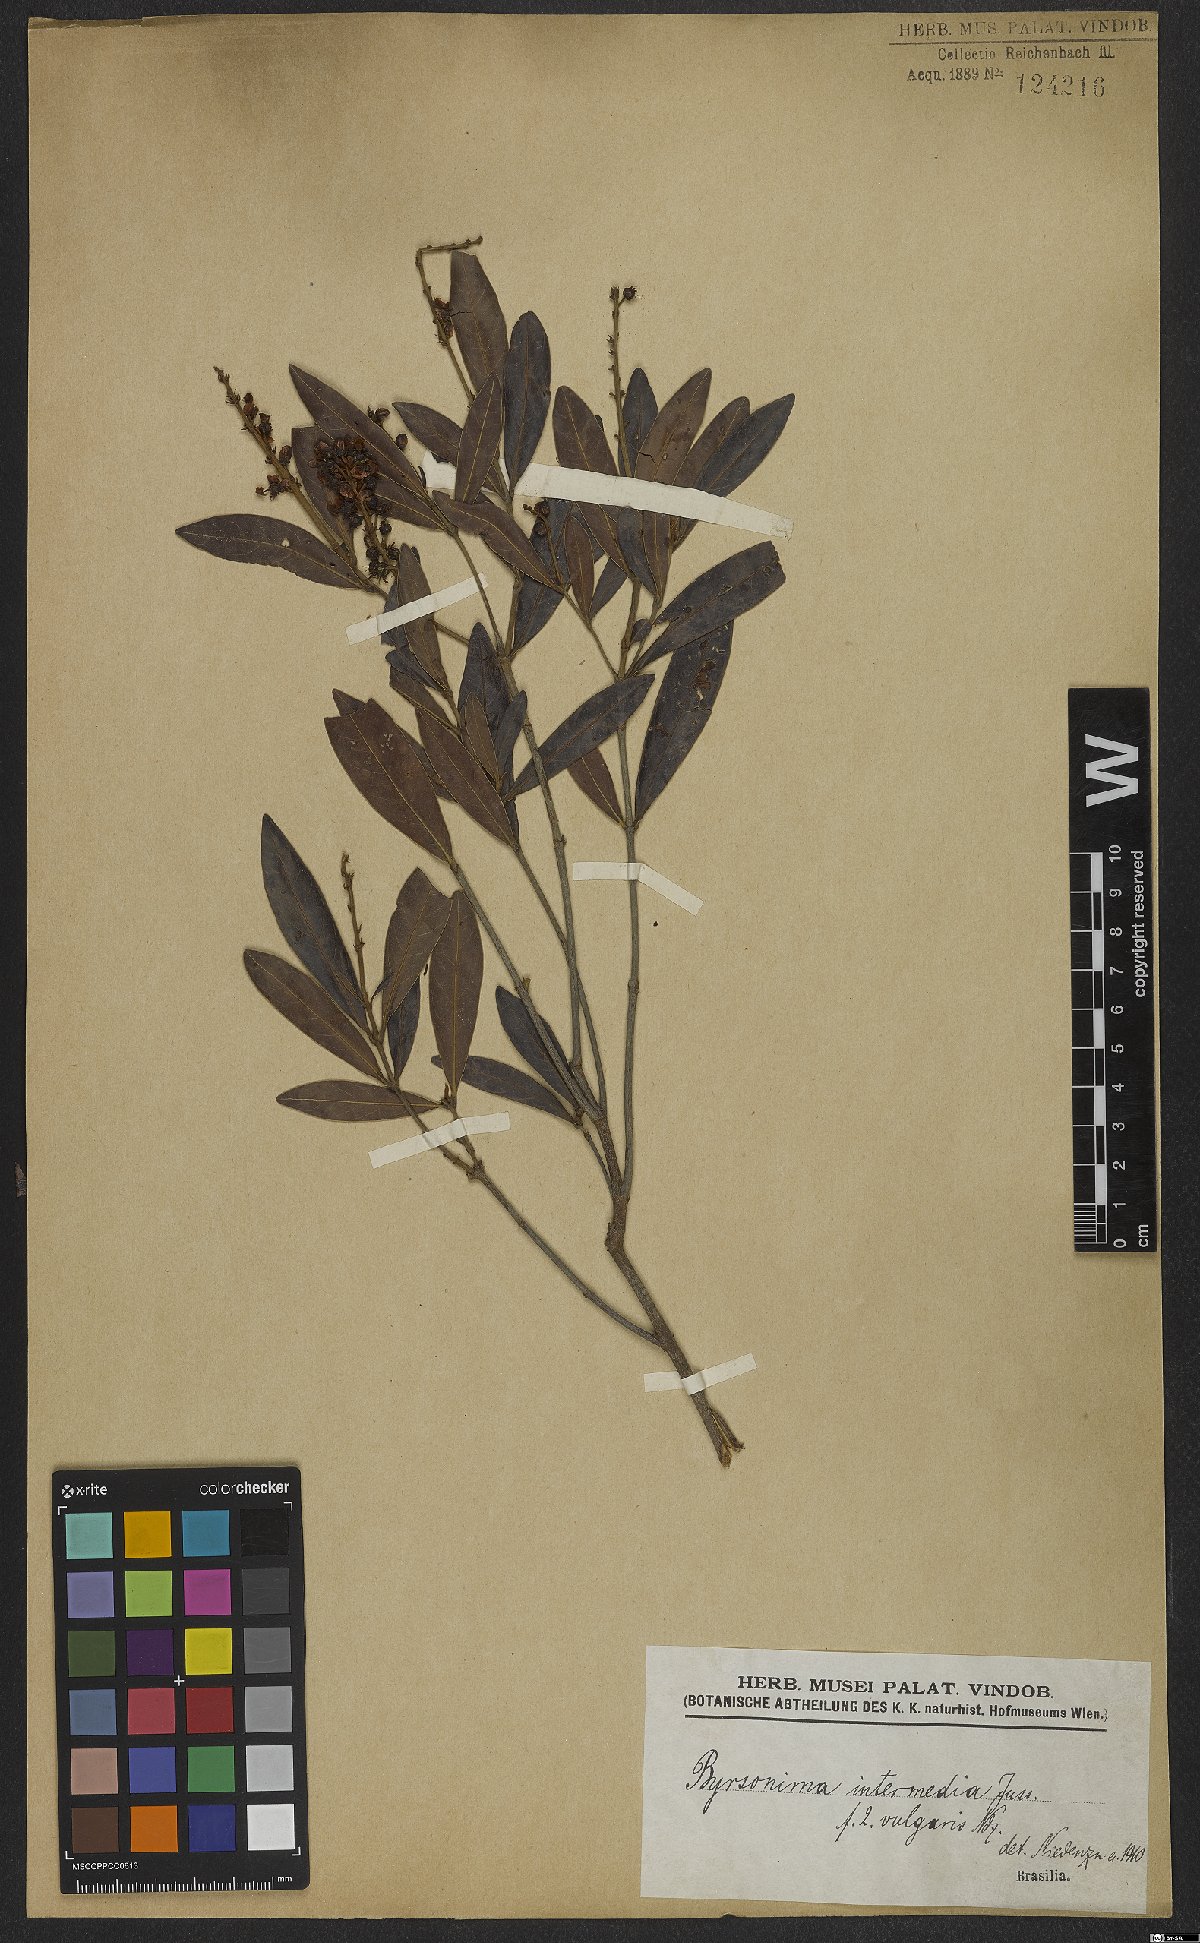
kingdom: Plantae
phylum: Tracheophyta
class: Magnoliopsida
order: Malpighiales
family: Malpighiaceae
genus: Byrsonima
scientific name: Byrsonima intermedia
